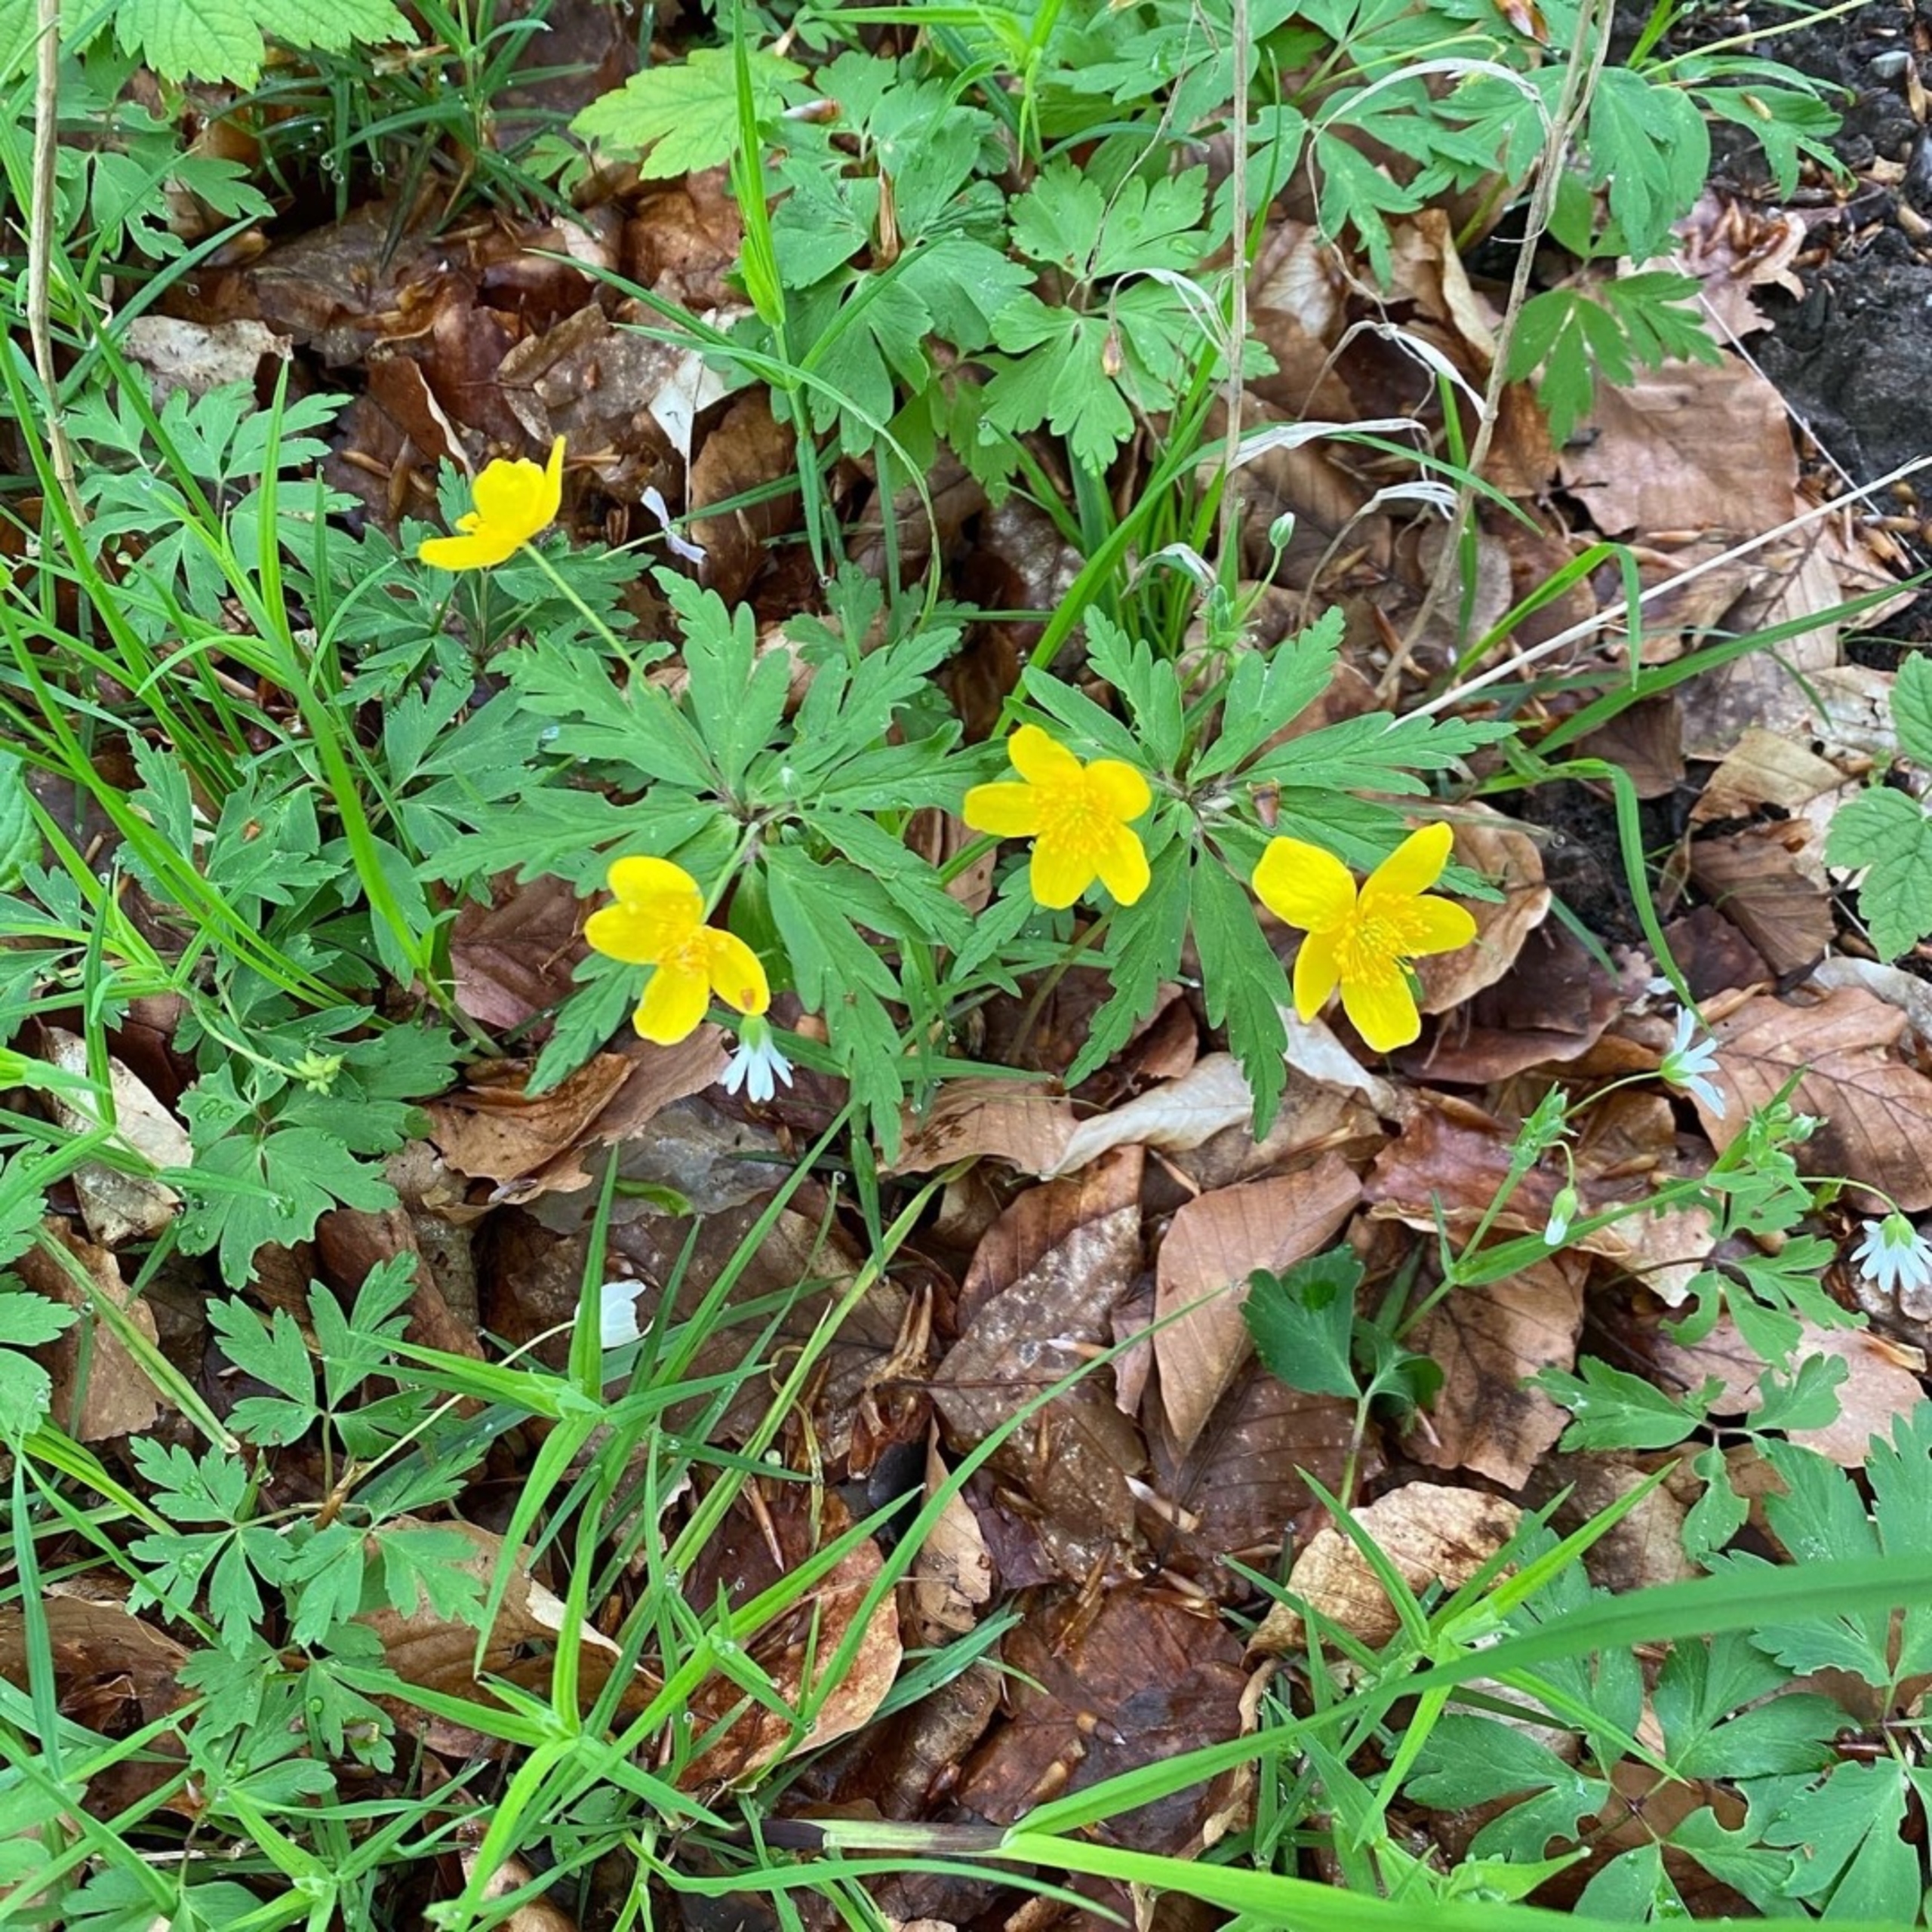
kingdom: Plantae
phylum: Tracheophyta
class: Magnoliopsida
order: Ranunculales
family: Ranunculaceae
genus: Anemone
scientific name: Anemone ranunculoides
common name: Gul anemone
